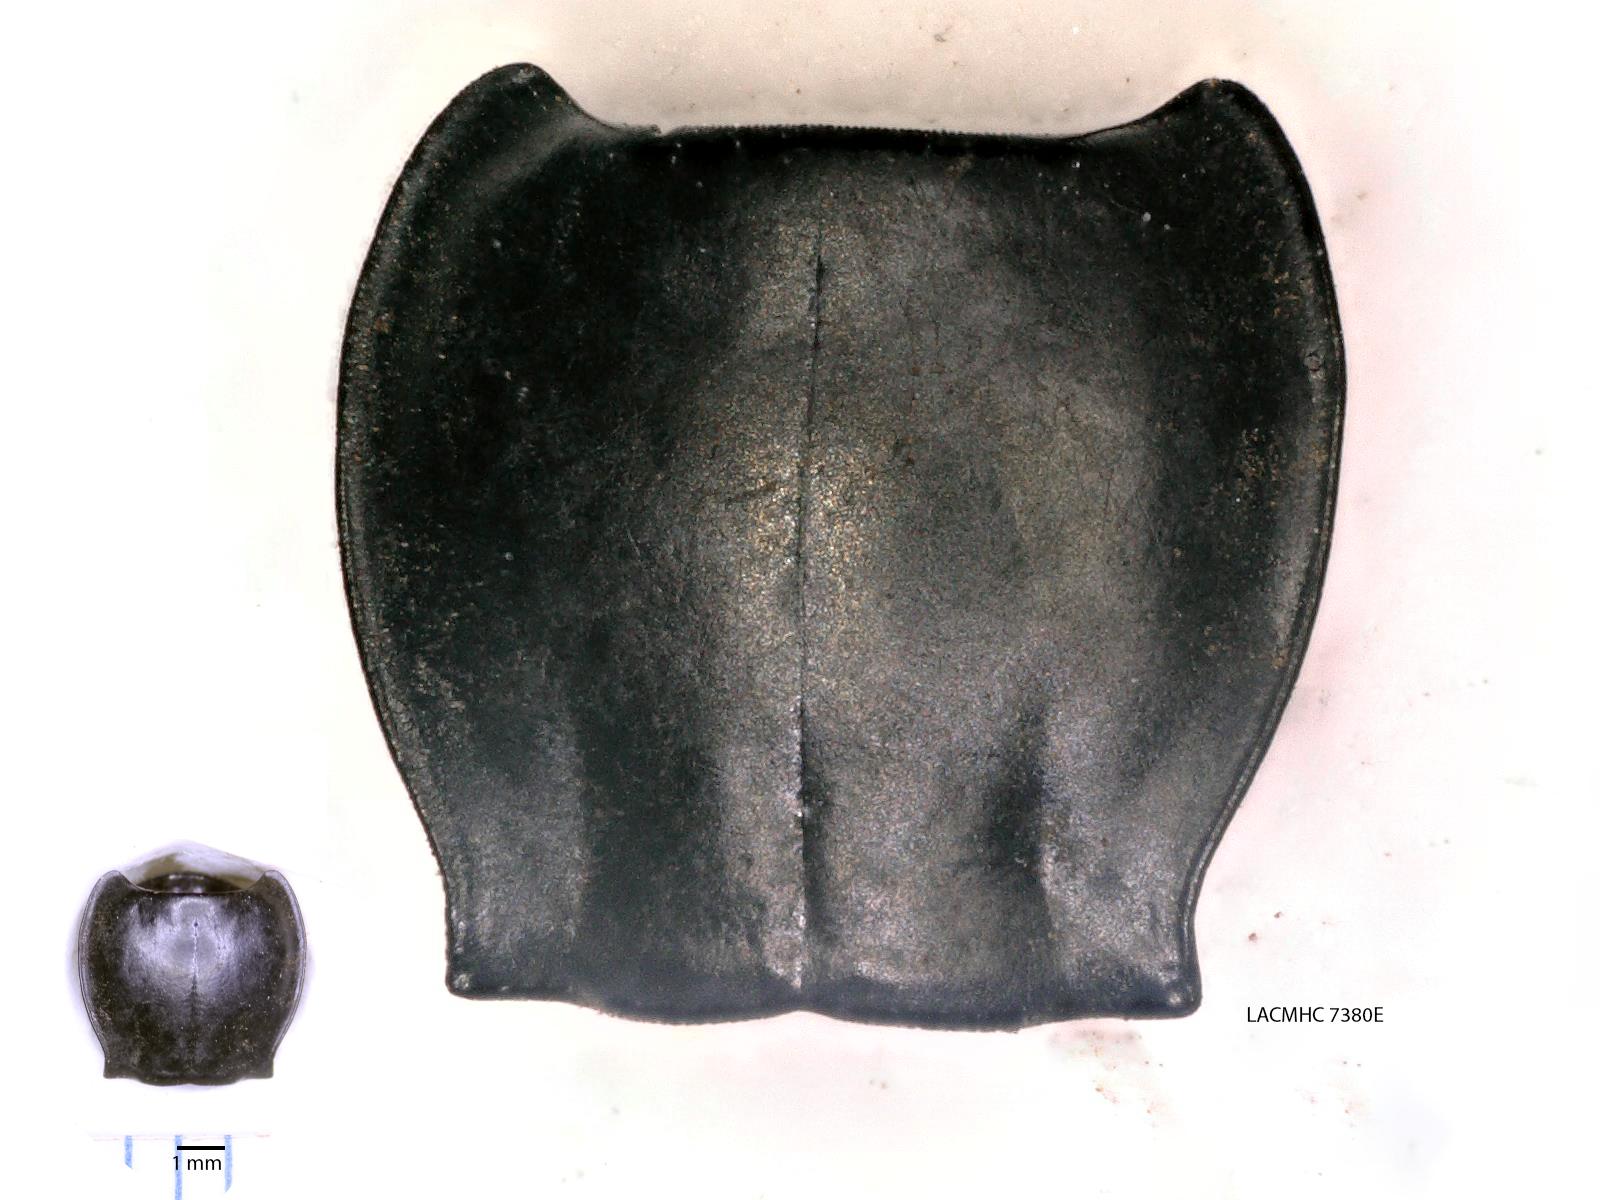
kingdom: Animalia
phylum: Arthropoda
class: Insecta
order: Coleoptera
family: Carabidae
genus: Pterostichus
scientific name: Pterostichus illustris
